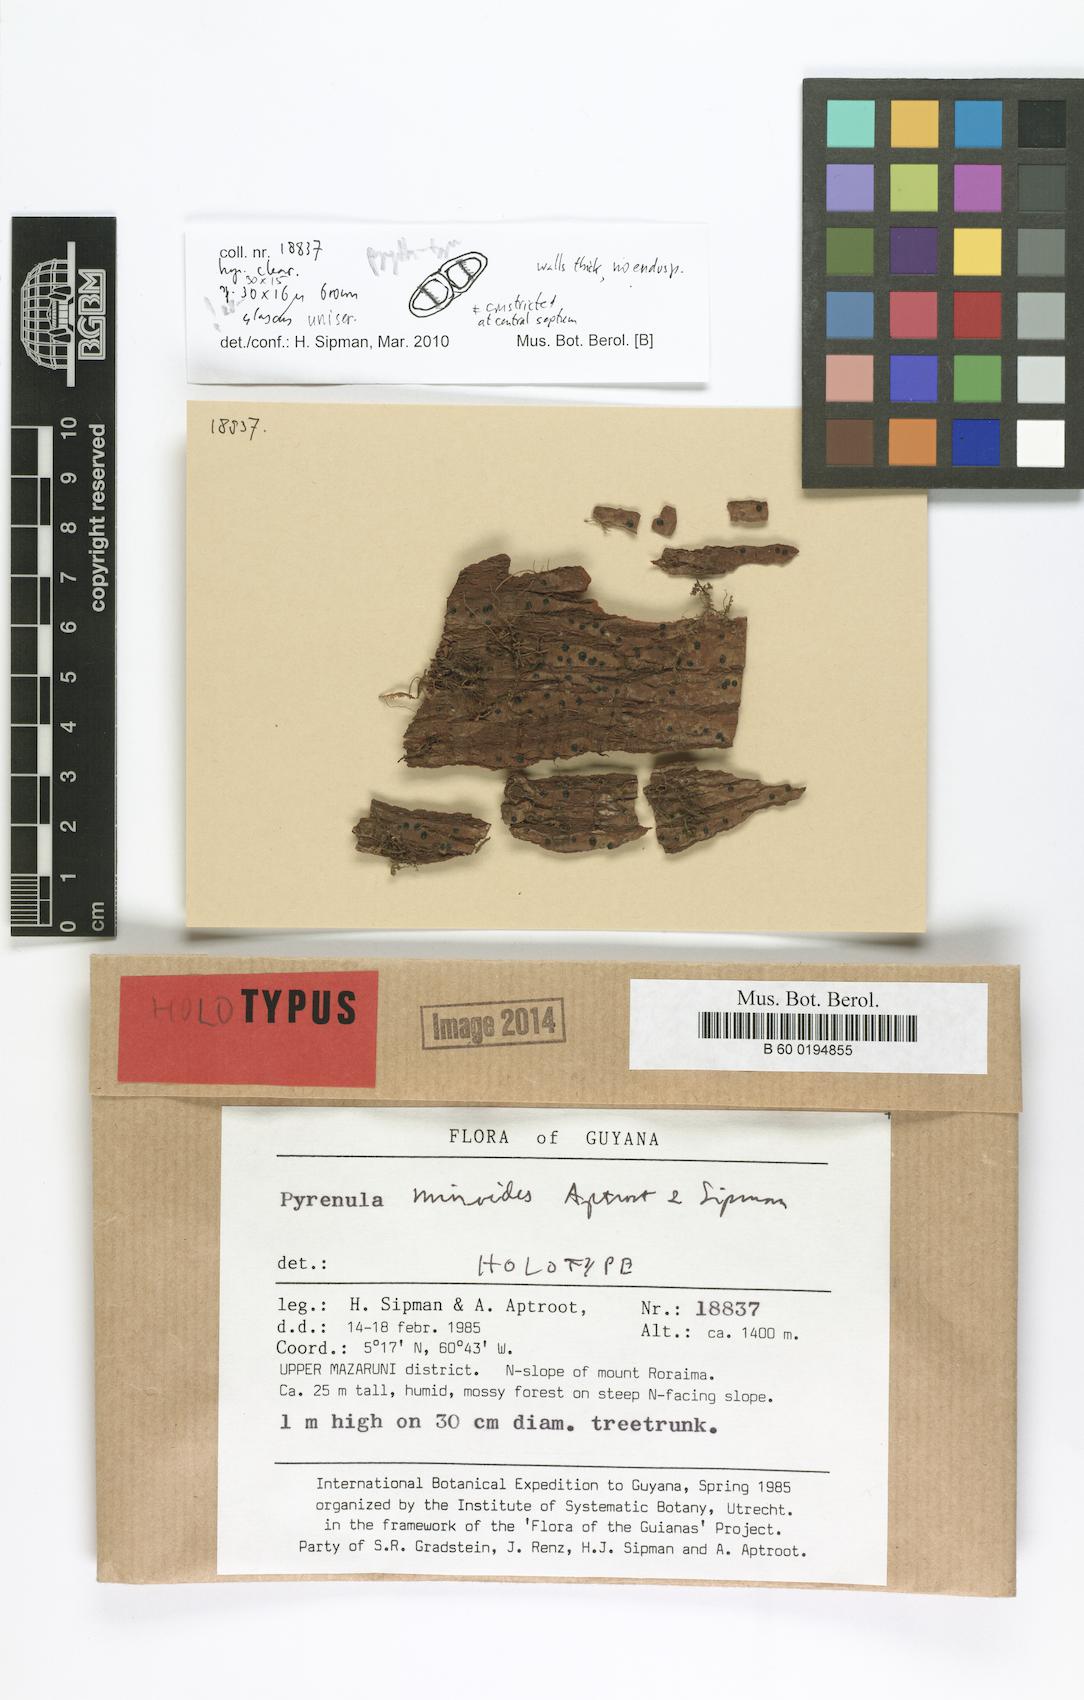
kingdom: Fungi
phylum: Ascomycota
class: Eurotiomycetes
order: Pyrenulales
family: Pyrenulaceae
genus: Pyrenula
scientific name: Pyrenula minoides
